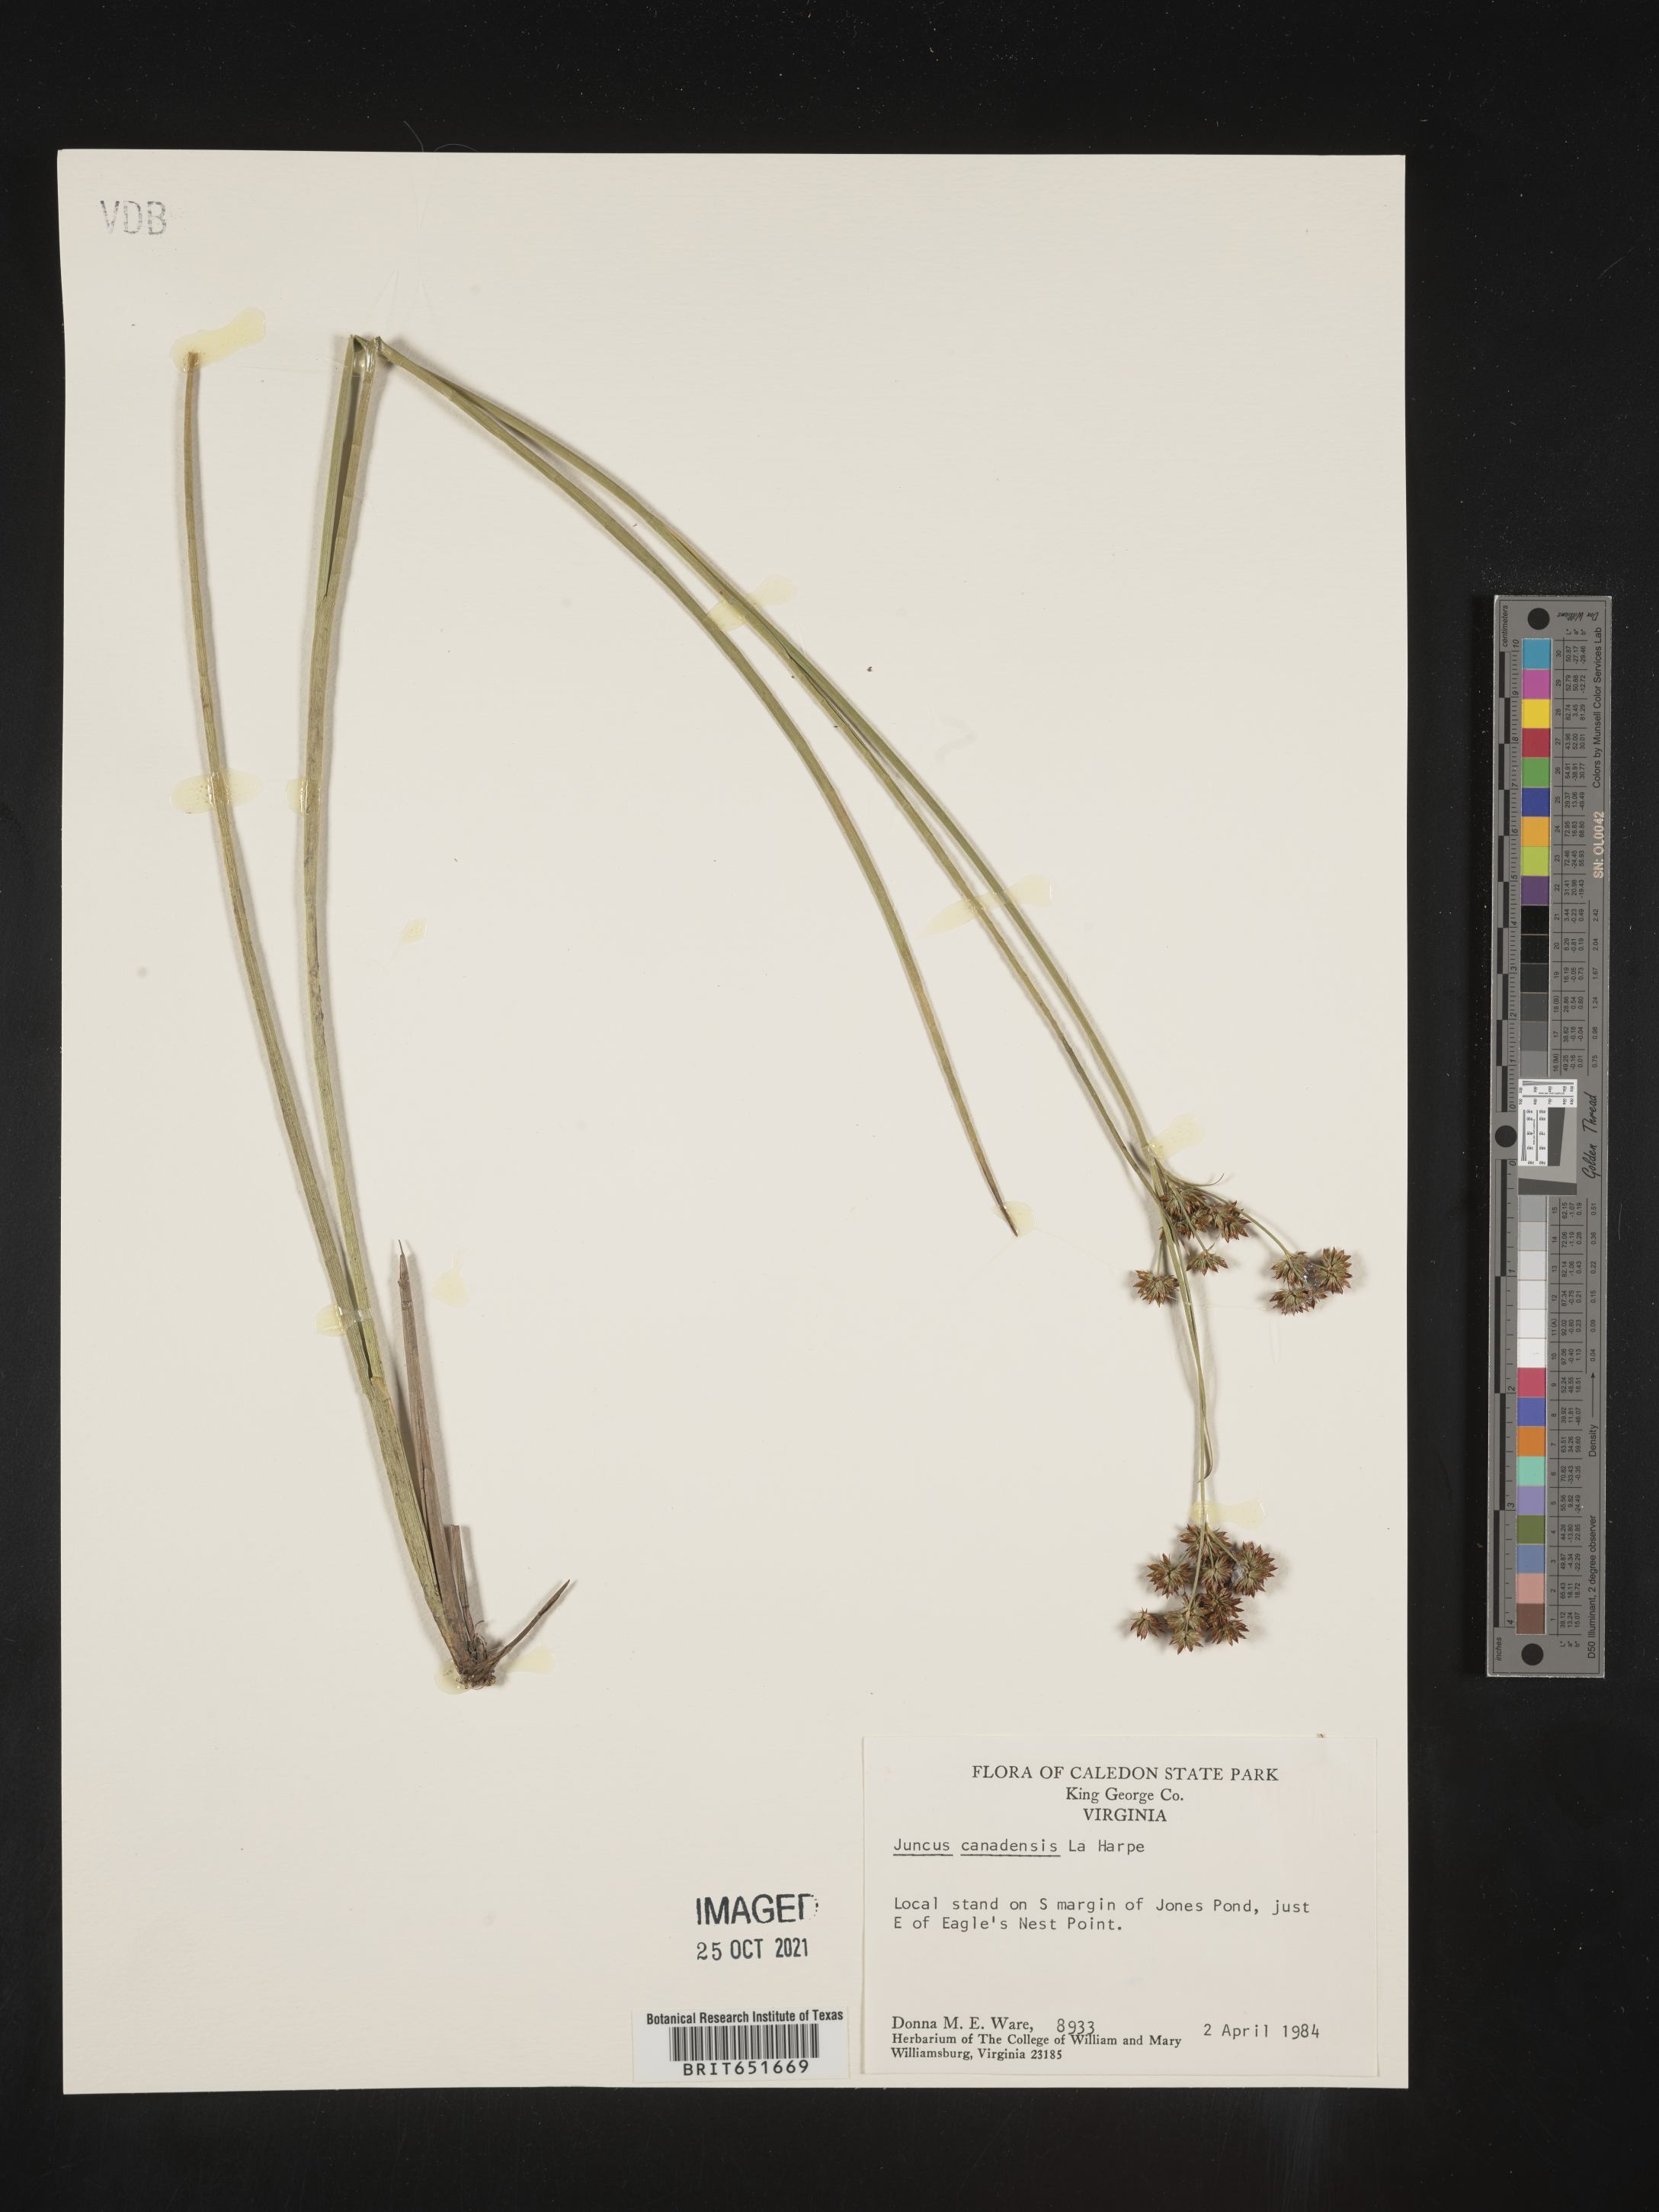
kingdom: Plantae
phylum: Tracheophyta
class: Liliopsida
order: Poales
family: Juncaceae
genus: Juncus
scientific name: Juncus canadensis
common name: Canada rush
